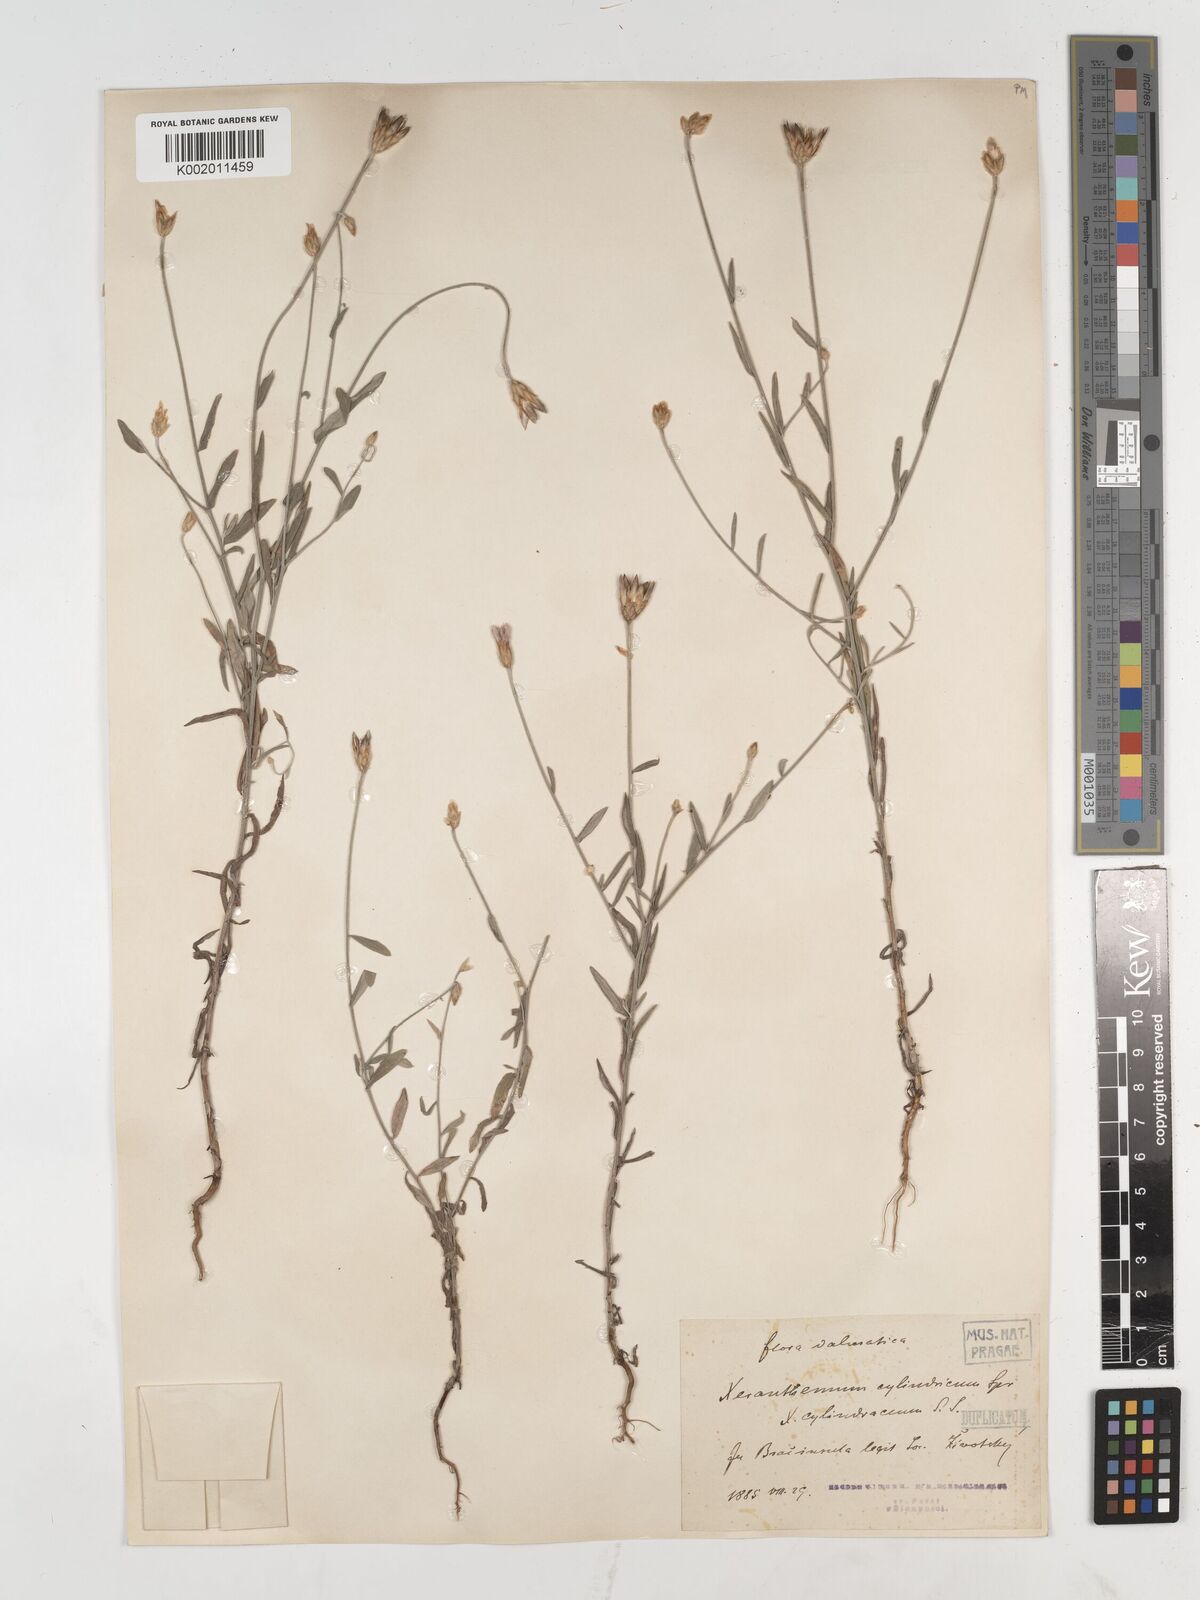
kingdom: Plantae
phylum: Tracheophyta
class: Magnoliopsida
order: Asterales
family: Asteraceae
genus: Xeranthemum
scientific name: Xeranthemum cylindraceum
